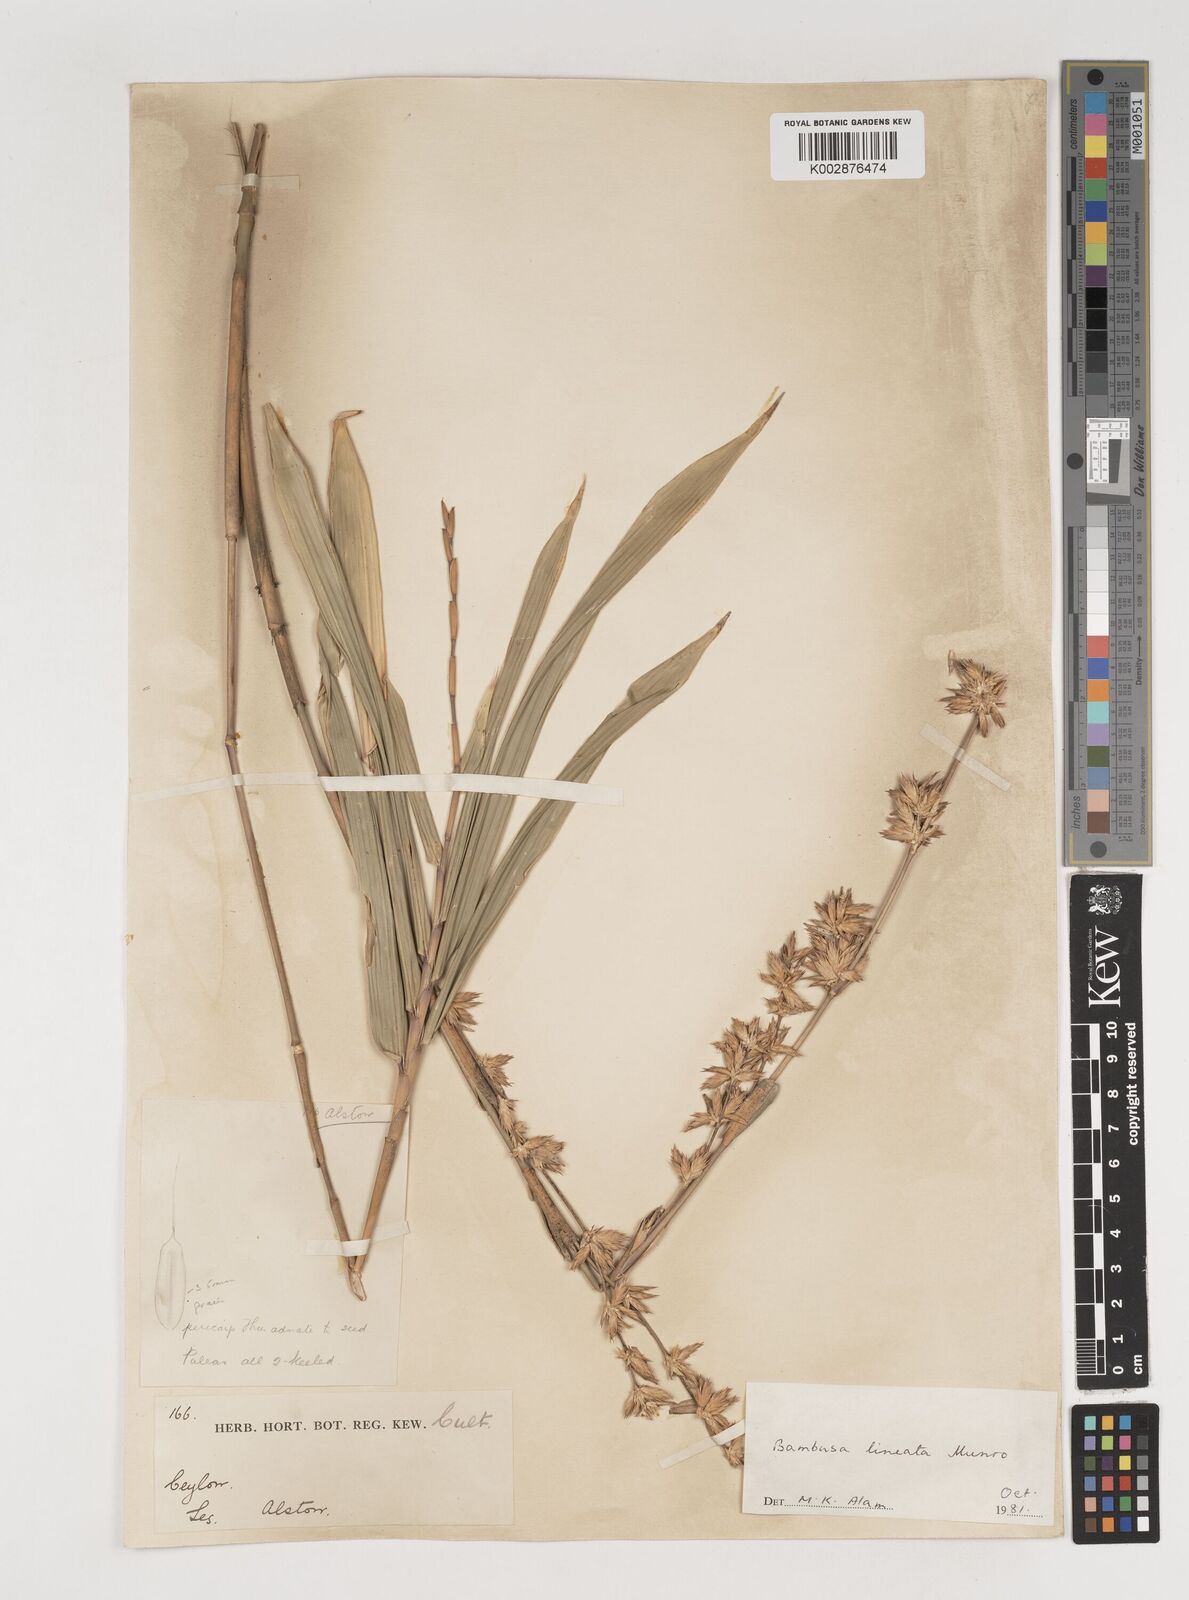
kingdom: Plantae
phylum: Tracheophyta
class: Liliopsida
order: Poales
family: Poaceae
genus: Neololeba
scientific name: Neololeba amahussana
